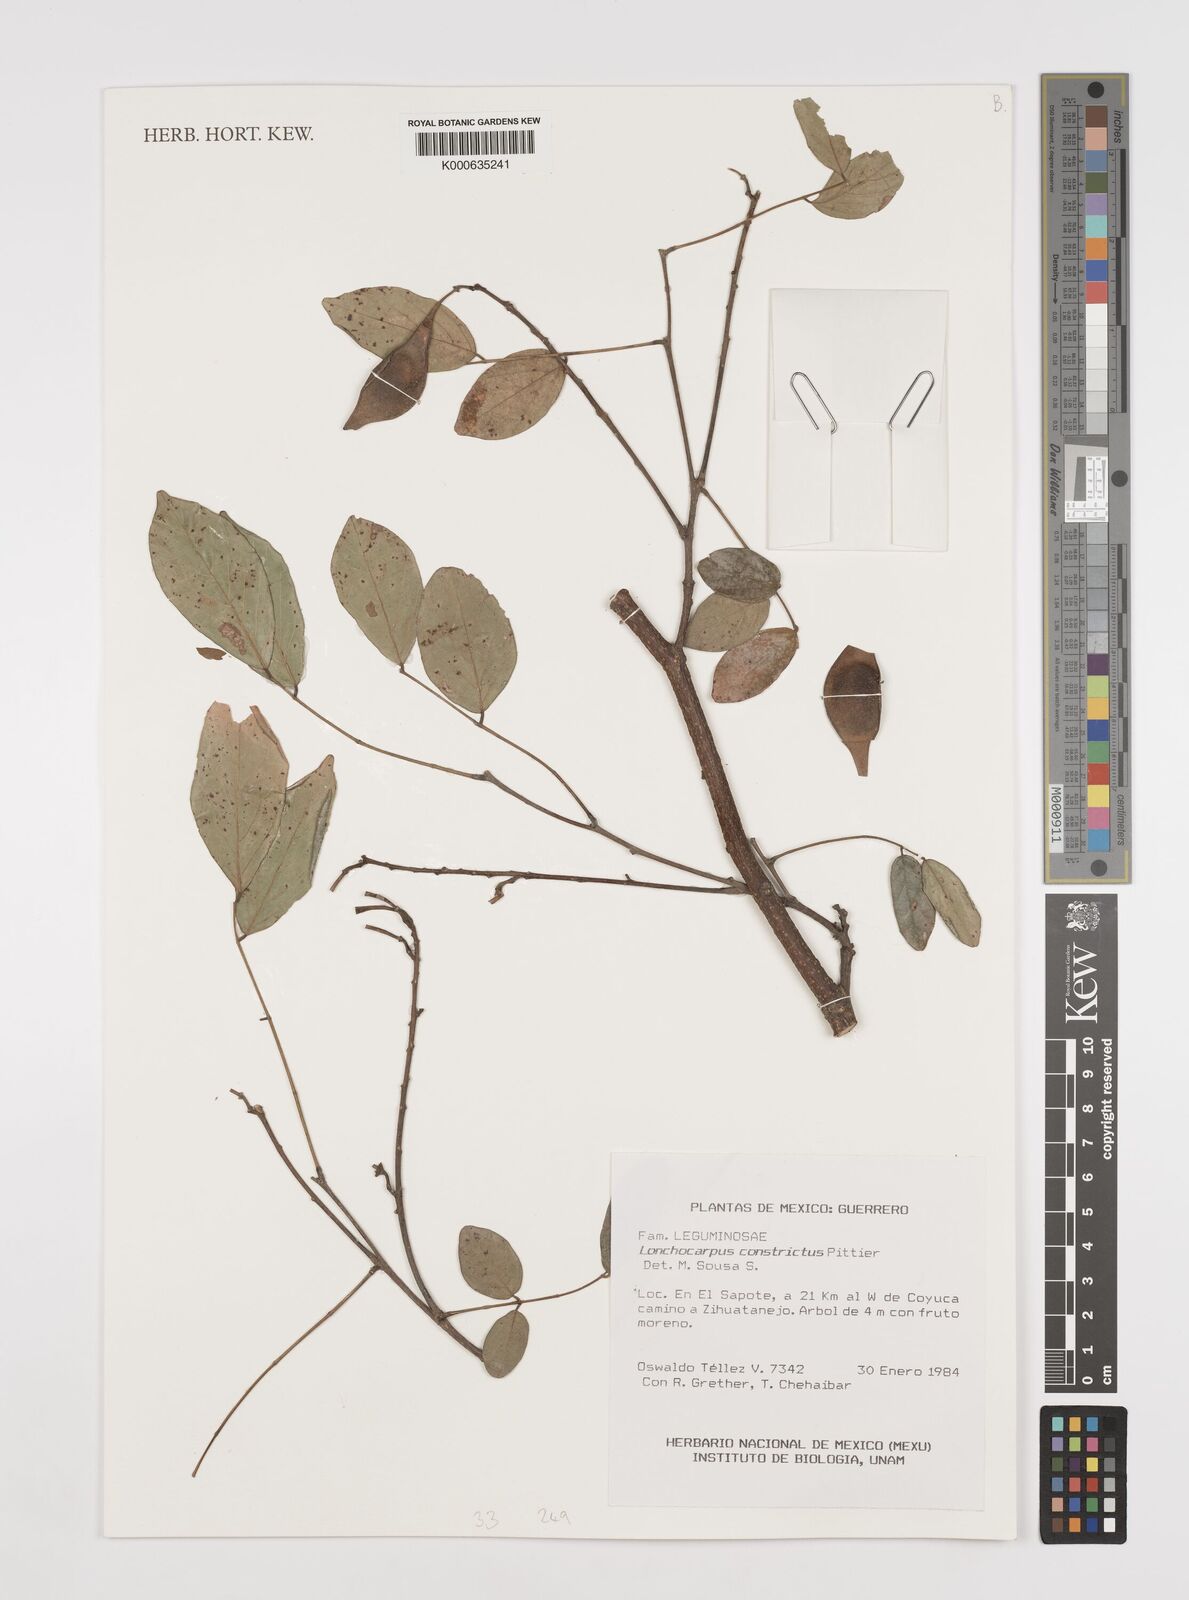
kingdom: Plantae
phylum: Tracheophyta
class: Magnoliopsida
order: Fabales
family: Fabaceae
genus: Lonchocarpus
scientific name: Lonchocarpus constrictus
